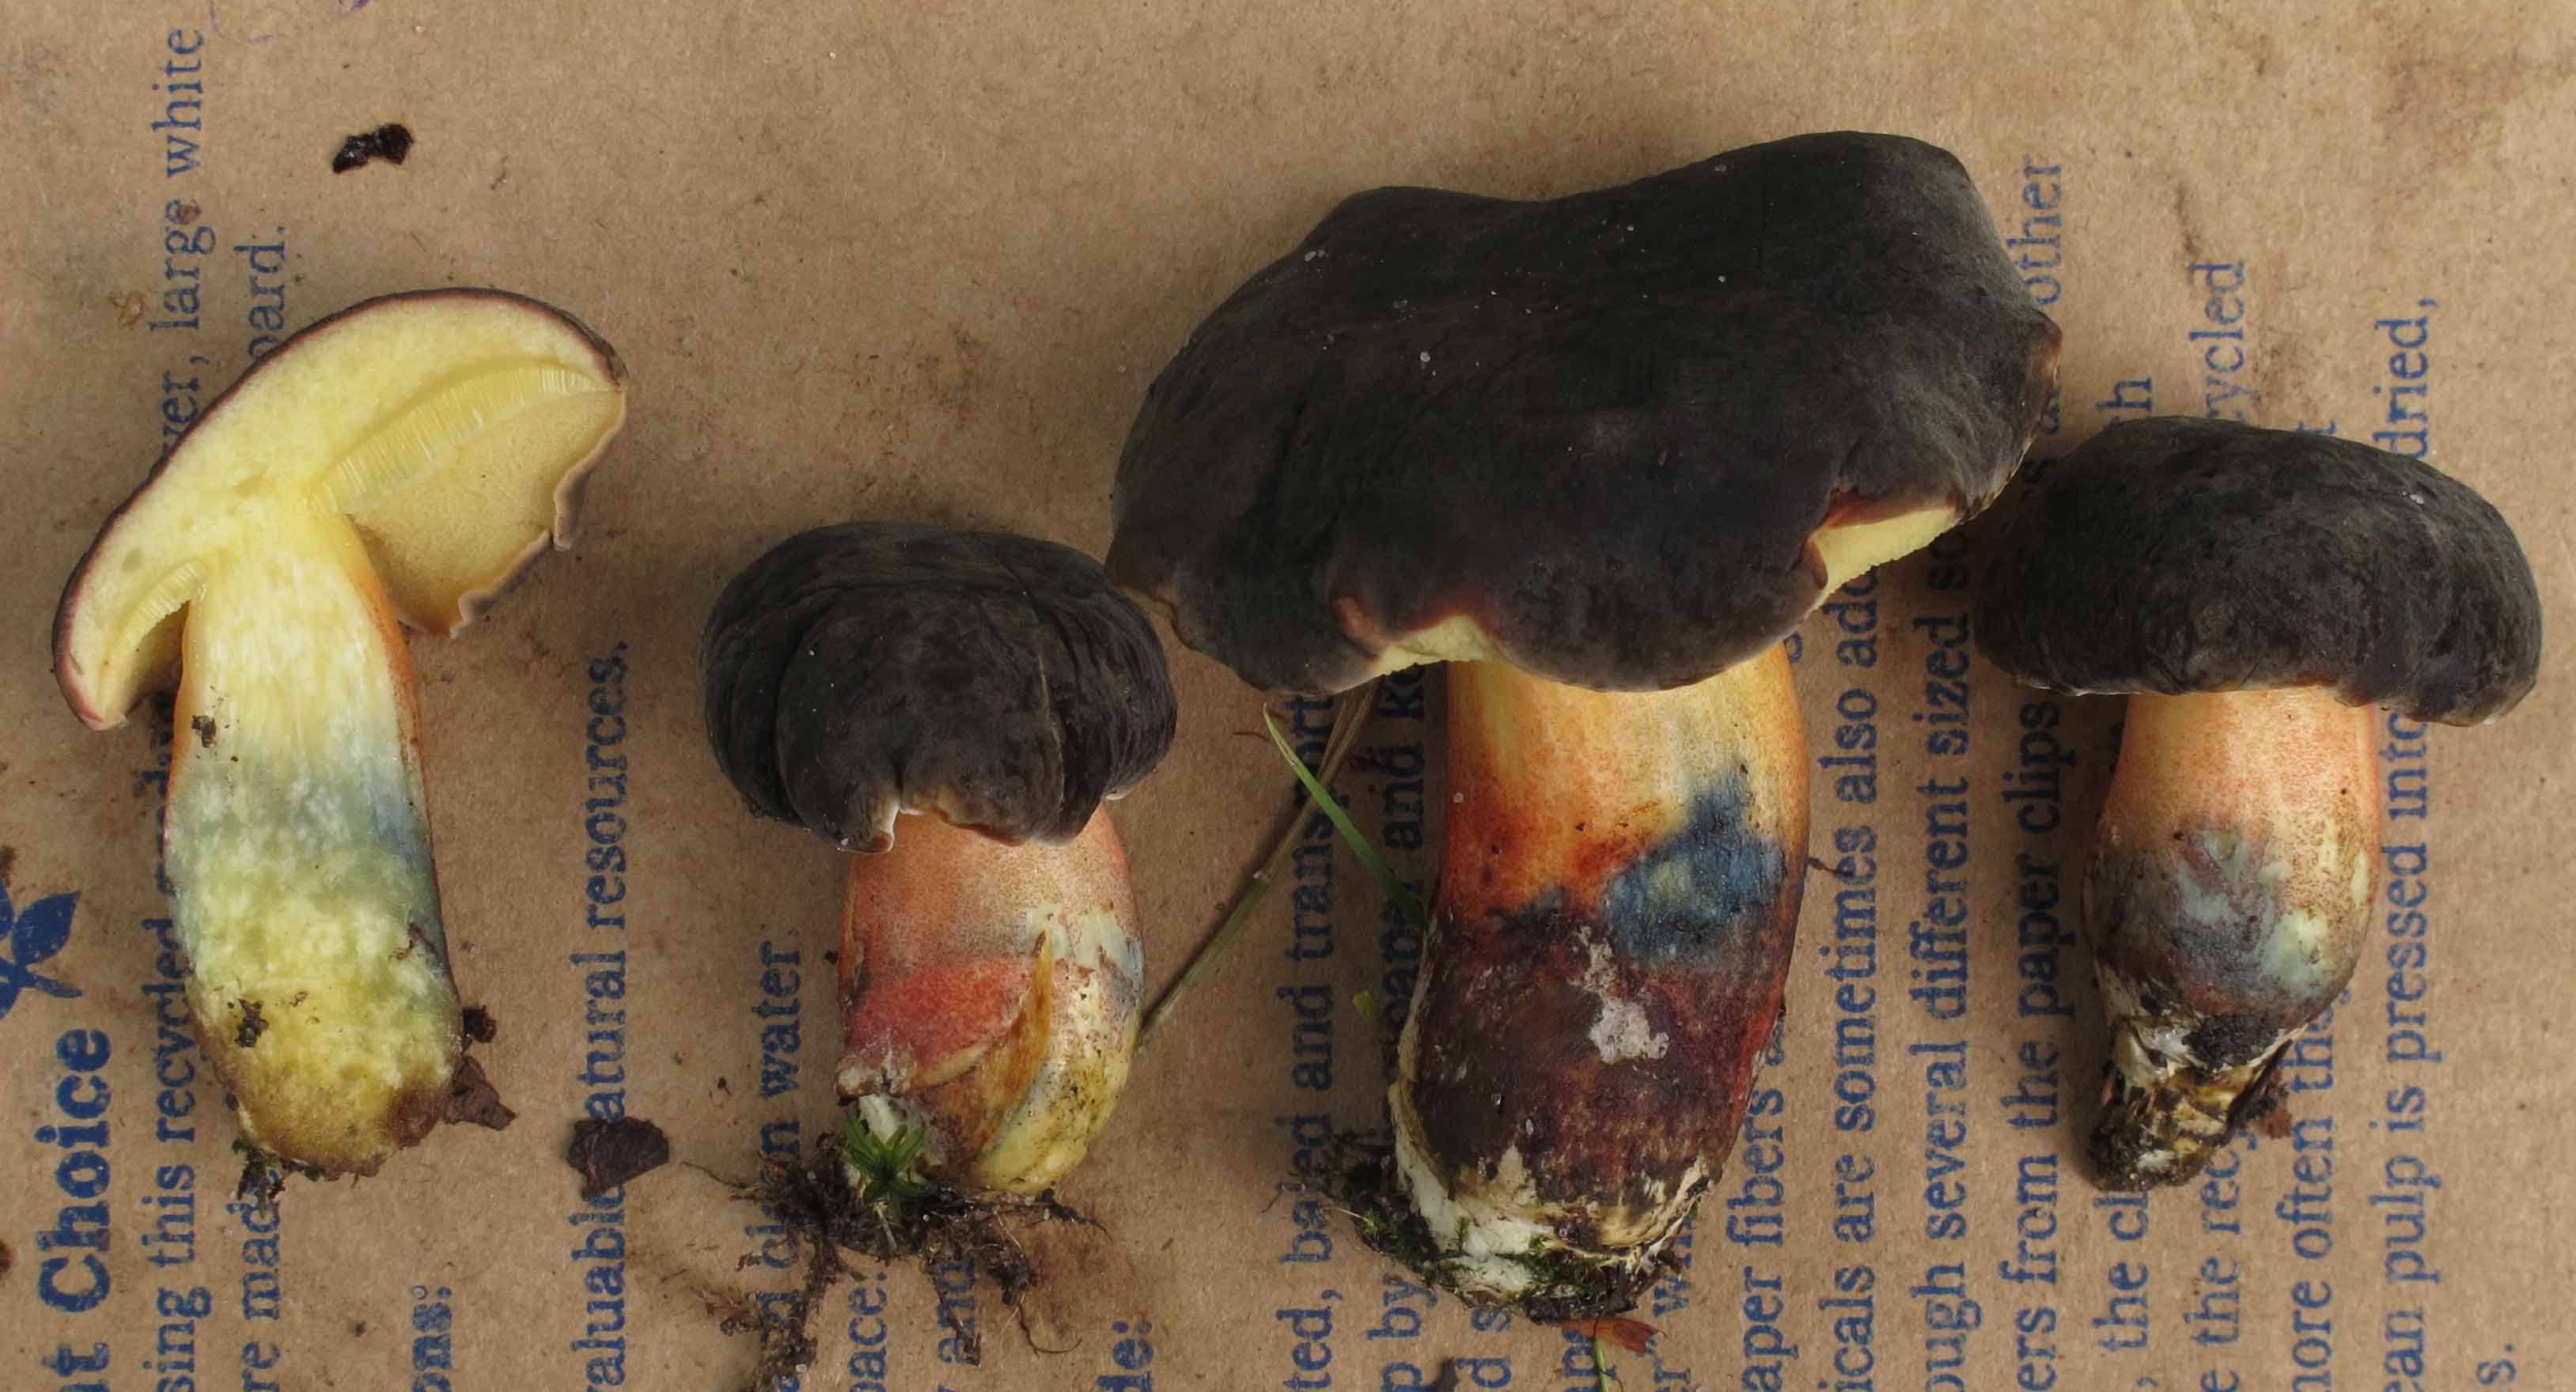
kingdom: Fungi
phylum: Basidiomycota
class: Agaricomycetes
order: Boletales
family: Boletaceae
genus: Xerocomellus
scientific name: Xerocomellus cisalpinus
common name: finsprukken rørhat
